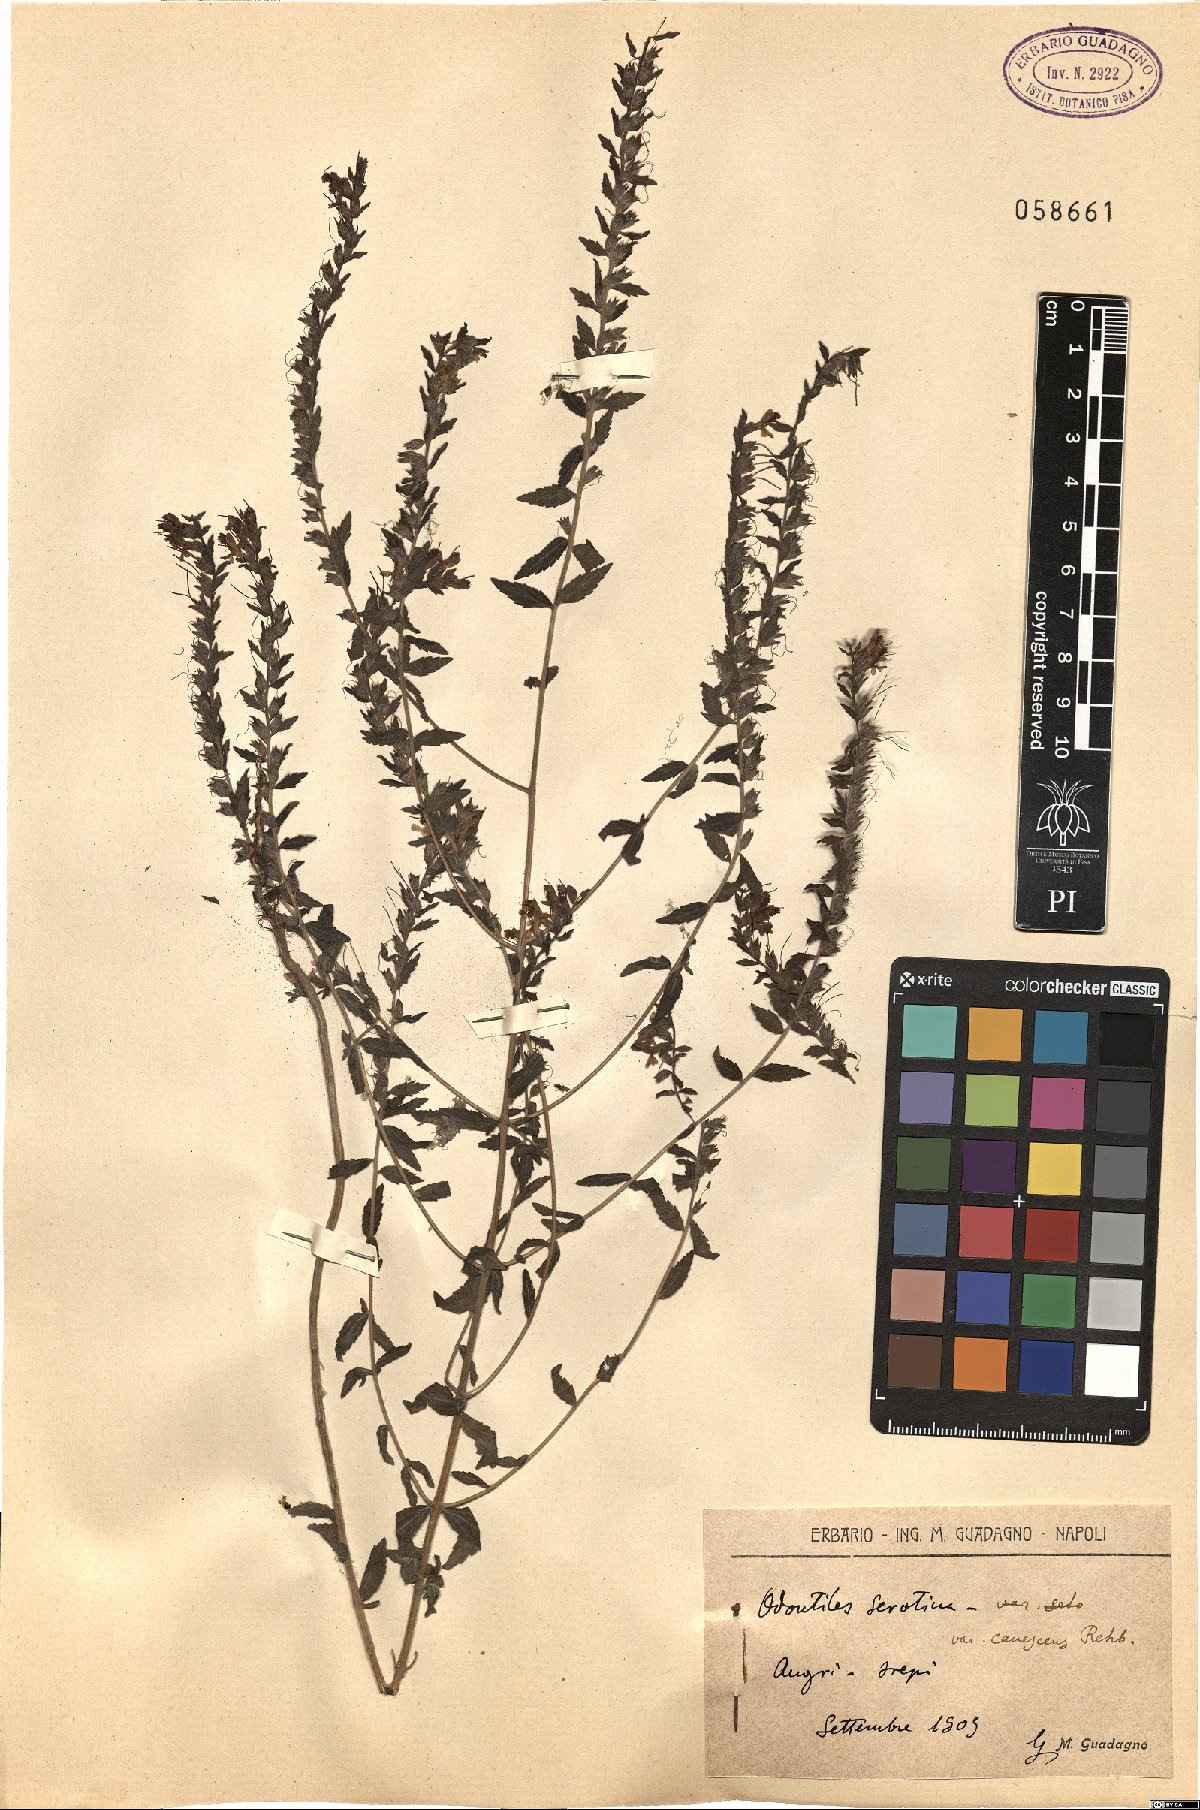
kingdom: Plantae
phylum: Tracheophyta
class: Magnoliopsida
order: Lamiales
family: Orobanchaceae
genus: Odontites
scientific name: Odontites vernus
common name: Red bartsia
